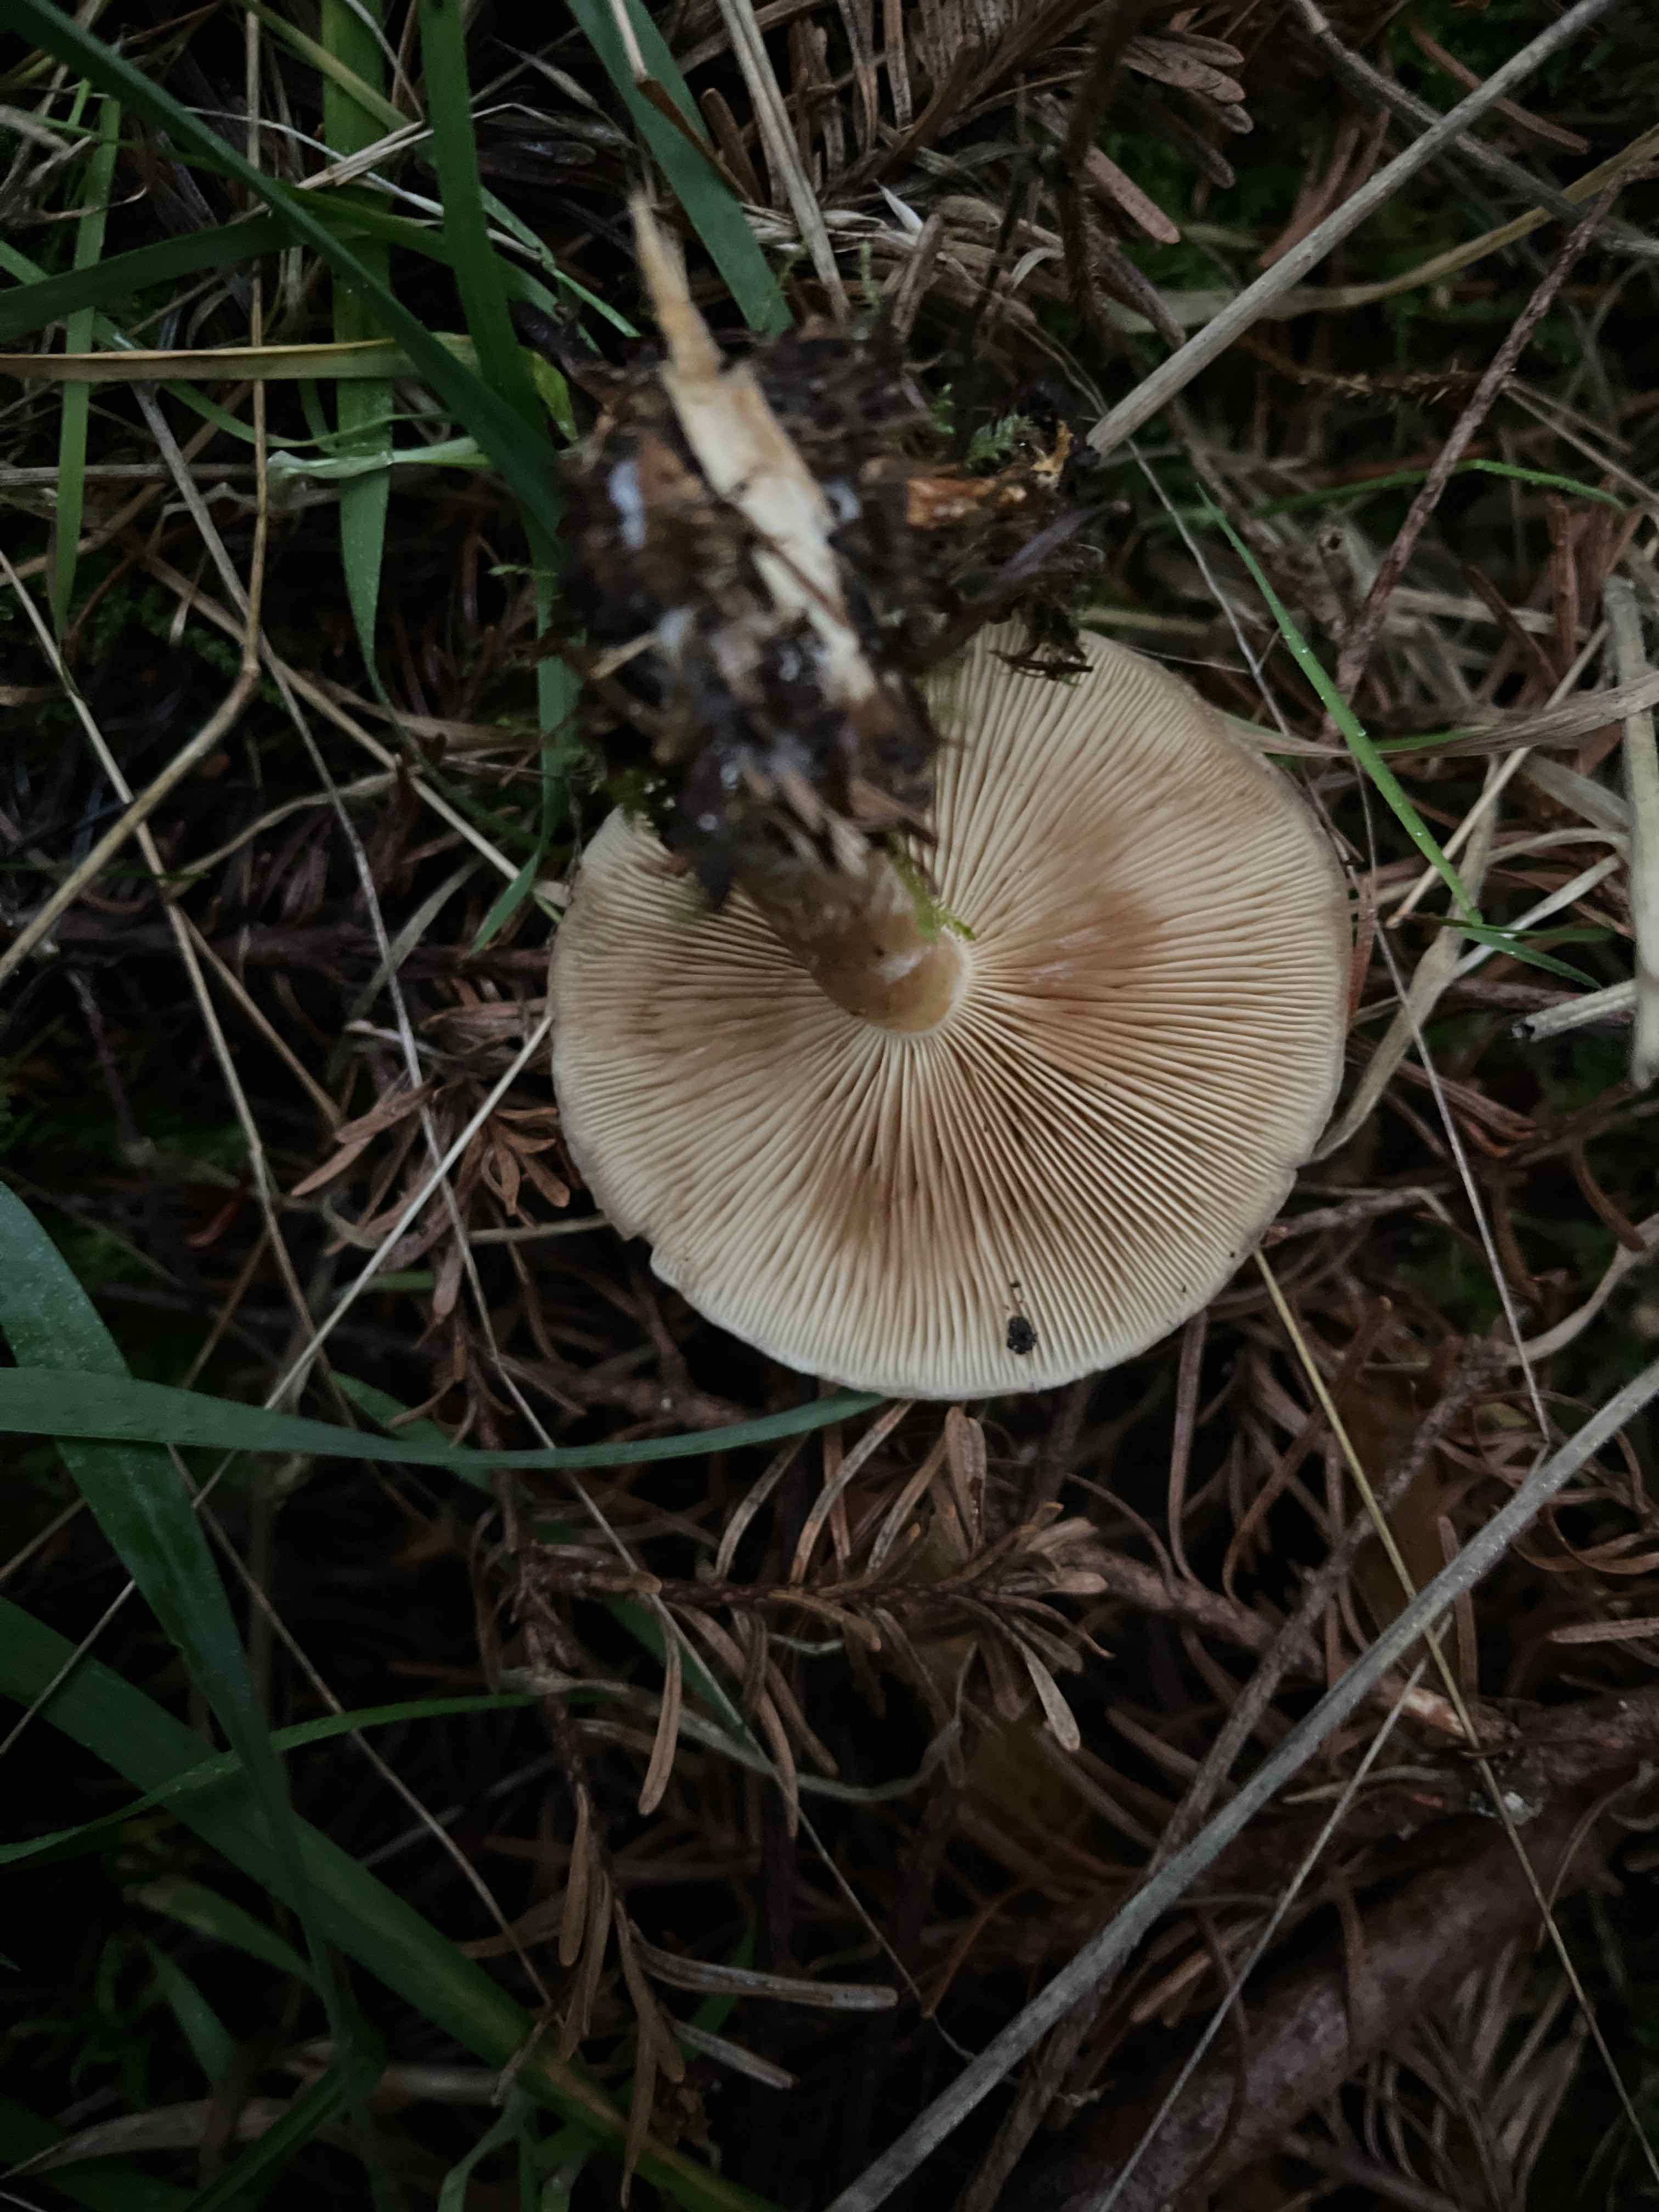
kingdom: Fungi
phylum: Basidiomycota
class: Agaricomycetes
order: Agaricales
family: Strophariaceae
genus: Pholiota
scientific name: Pholiota lenta
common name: løv-skælhat
